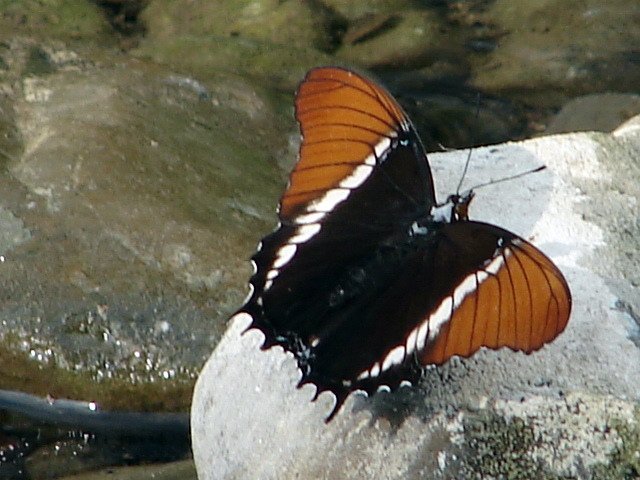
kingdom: Animalia
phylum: Arthropoda
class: Insecta
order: Lepidoptera
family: Nymphalidae
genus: Siproeta
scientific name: Siproeta epaphus
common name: Rusty-tipped Page
